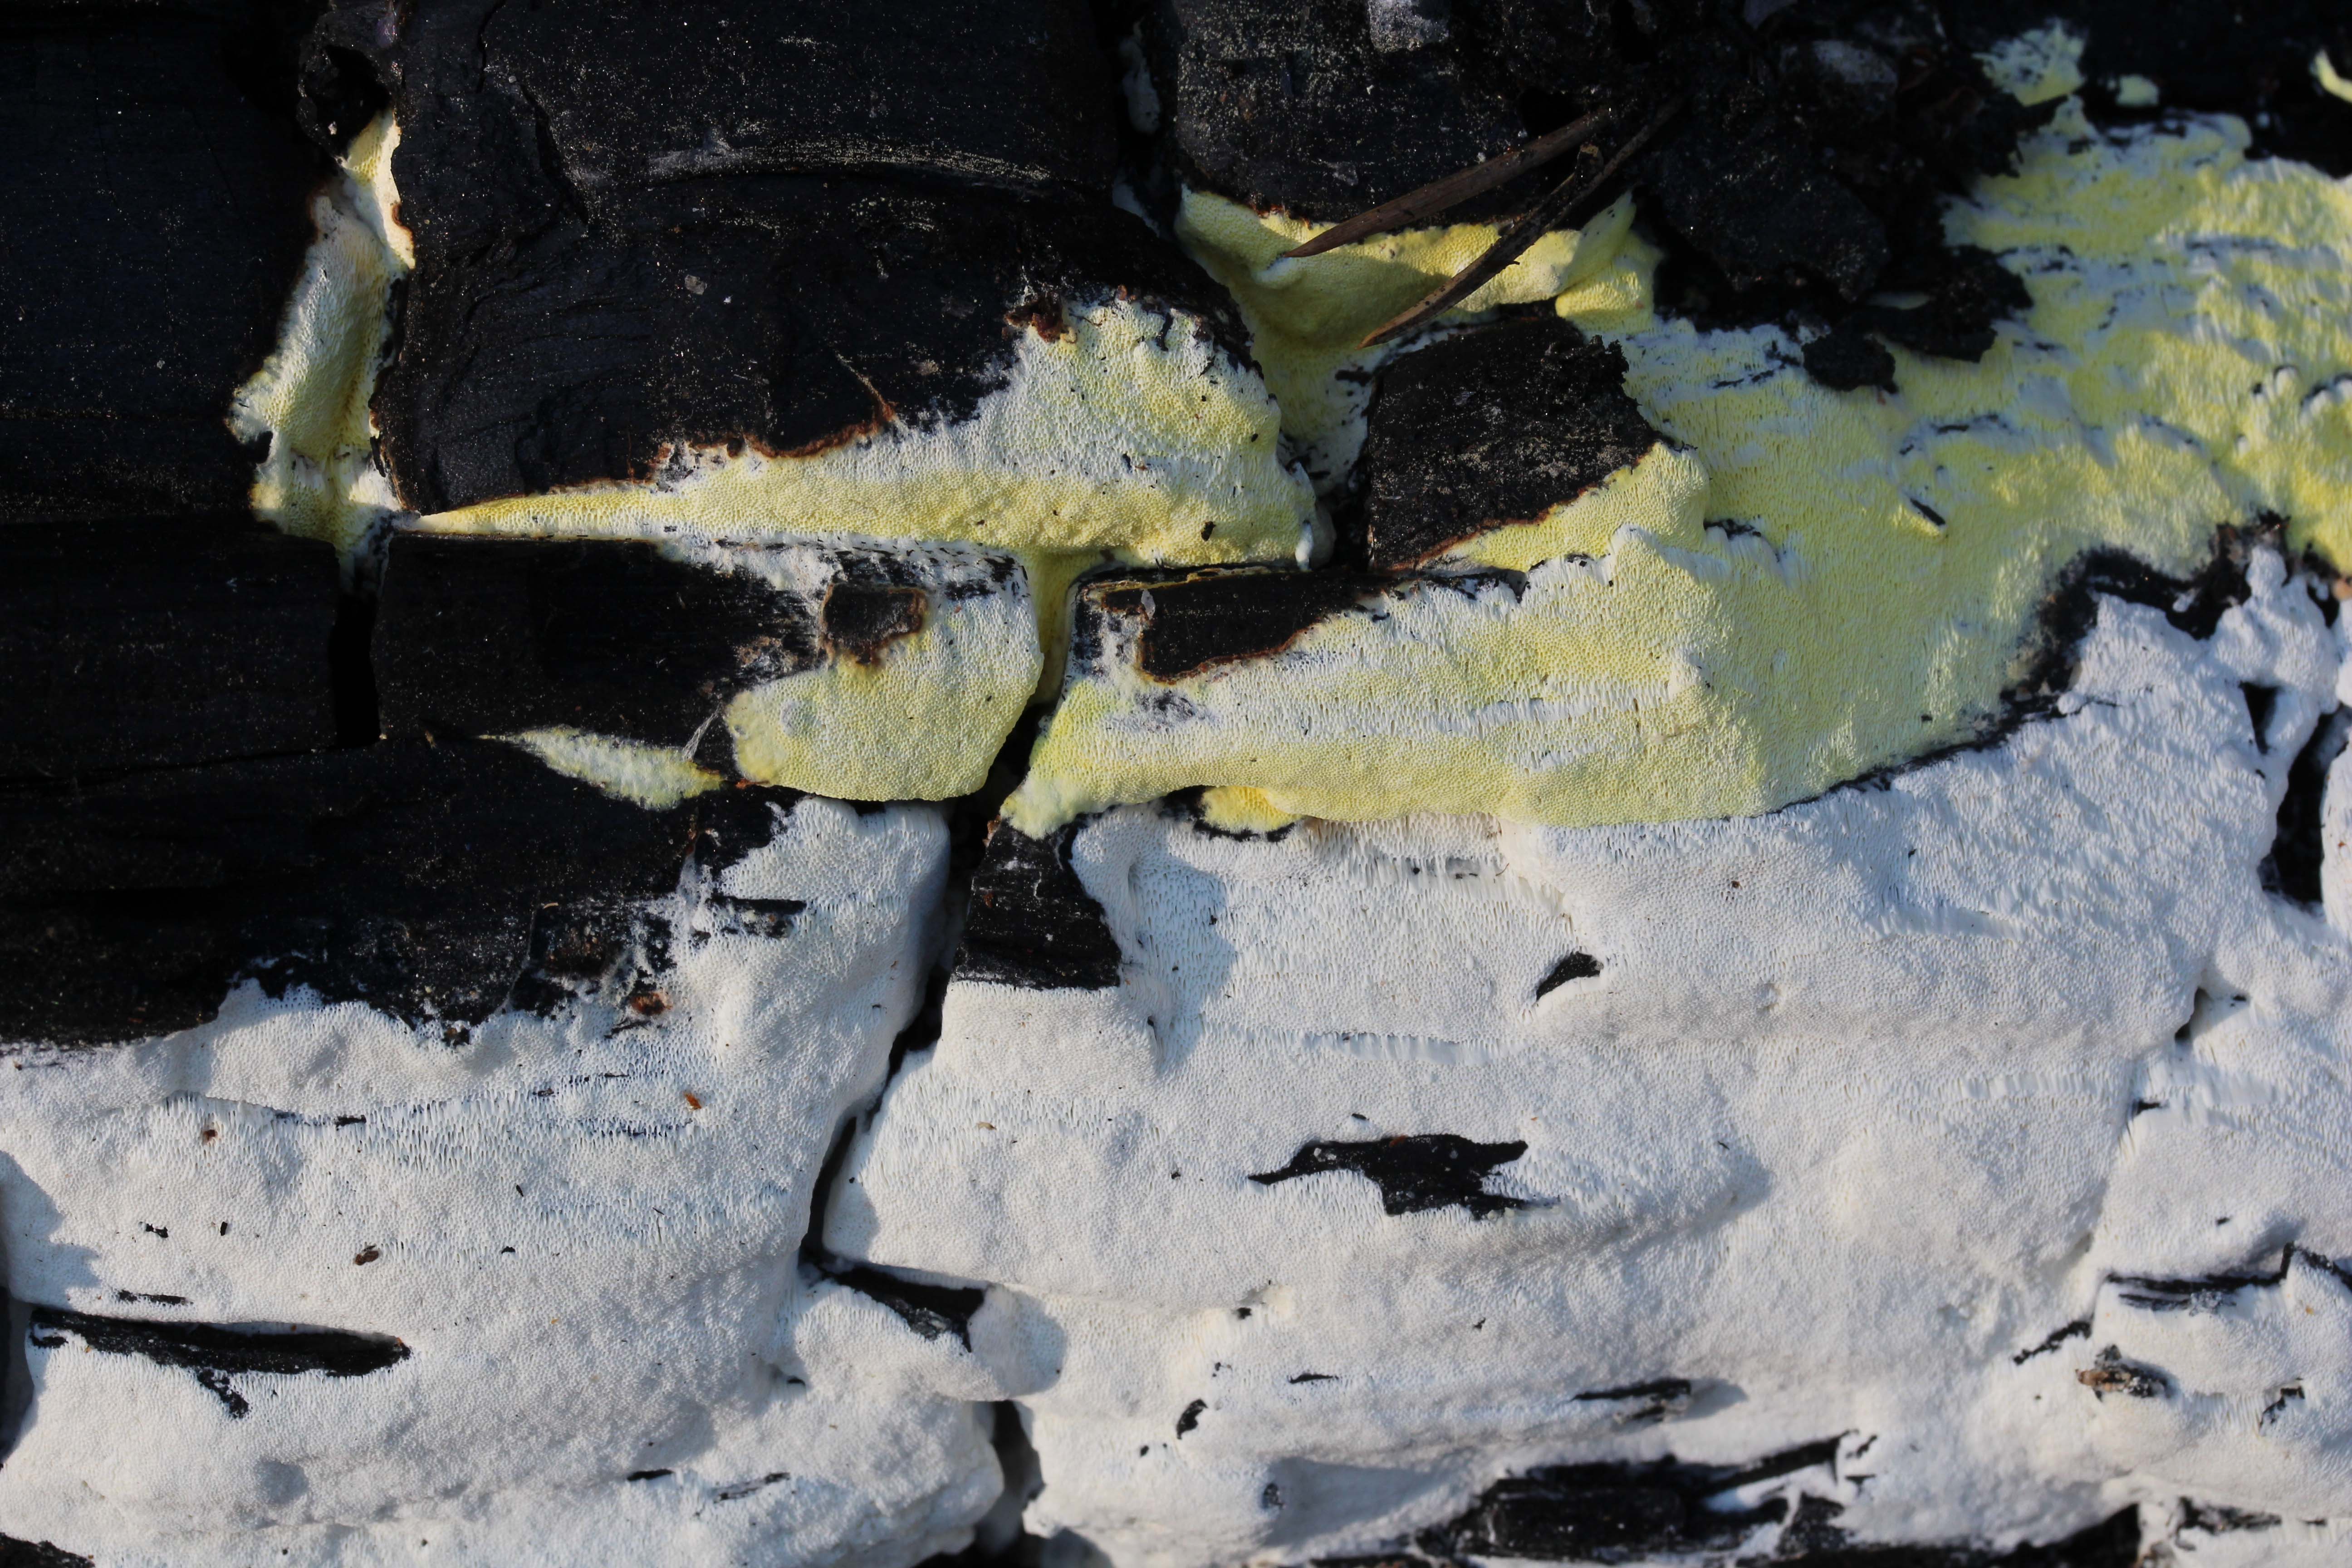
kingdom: Fungi
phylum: Basidiomycota
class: Agaricomycetes
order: Polyporales
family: Fomitopsidaceae
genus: Daedalea
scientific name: Daedalea xantha
